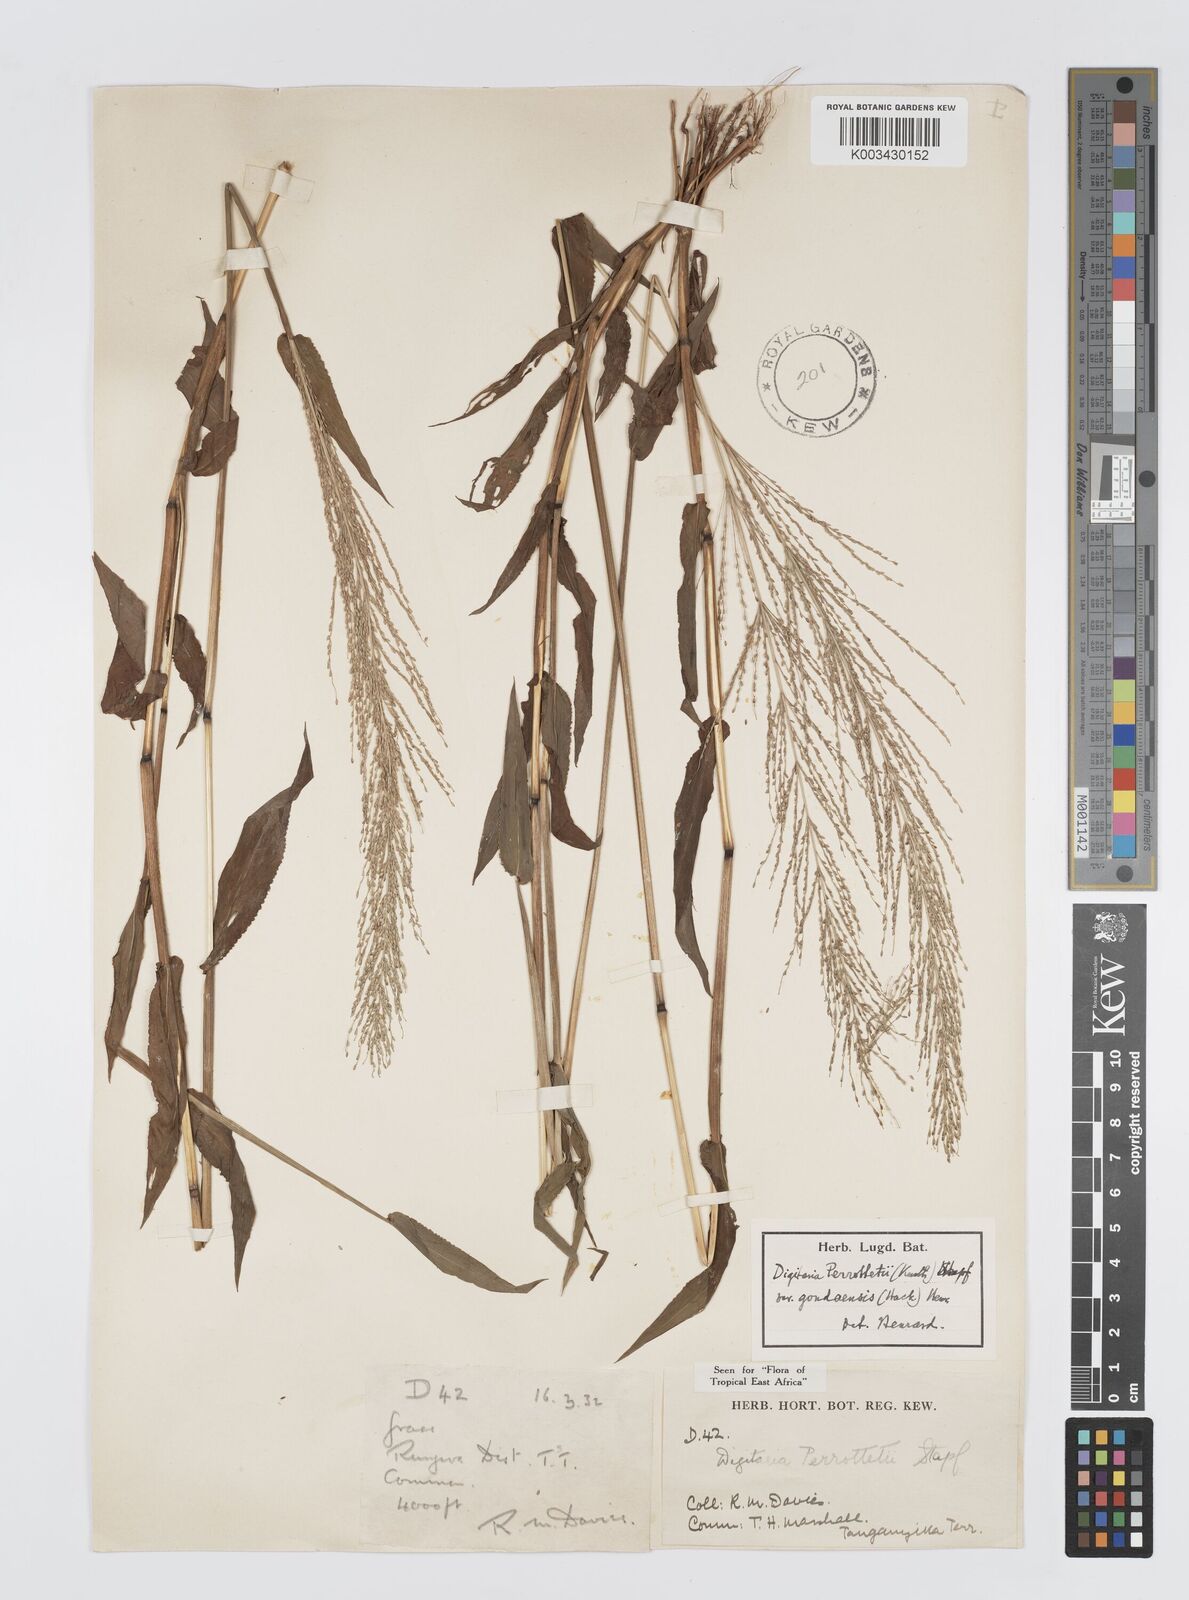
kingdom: Plantae
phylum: Tracheophyta
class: Liliopsida
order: Poales
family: Poaceae
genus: Digitaria
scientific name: Digitaria perrottetii
